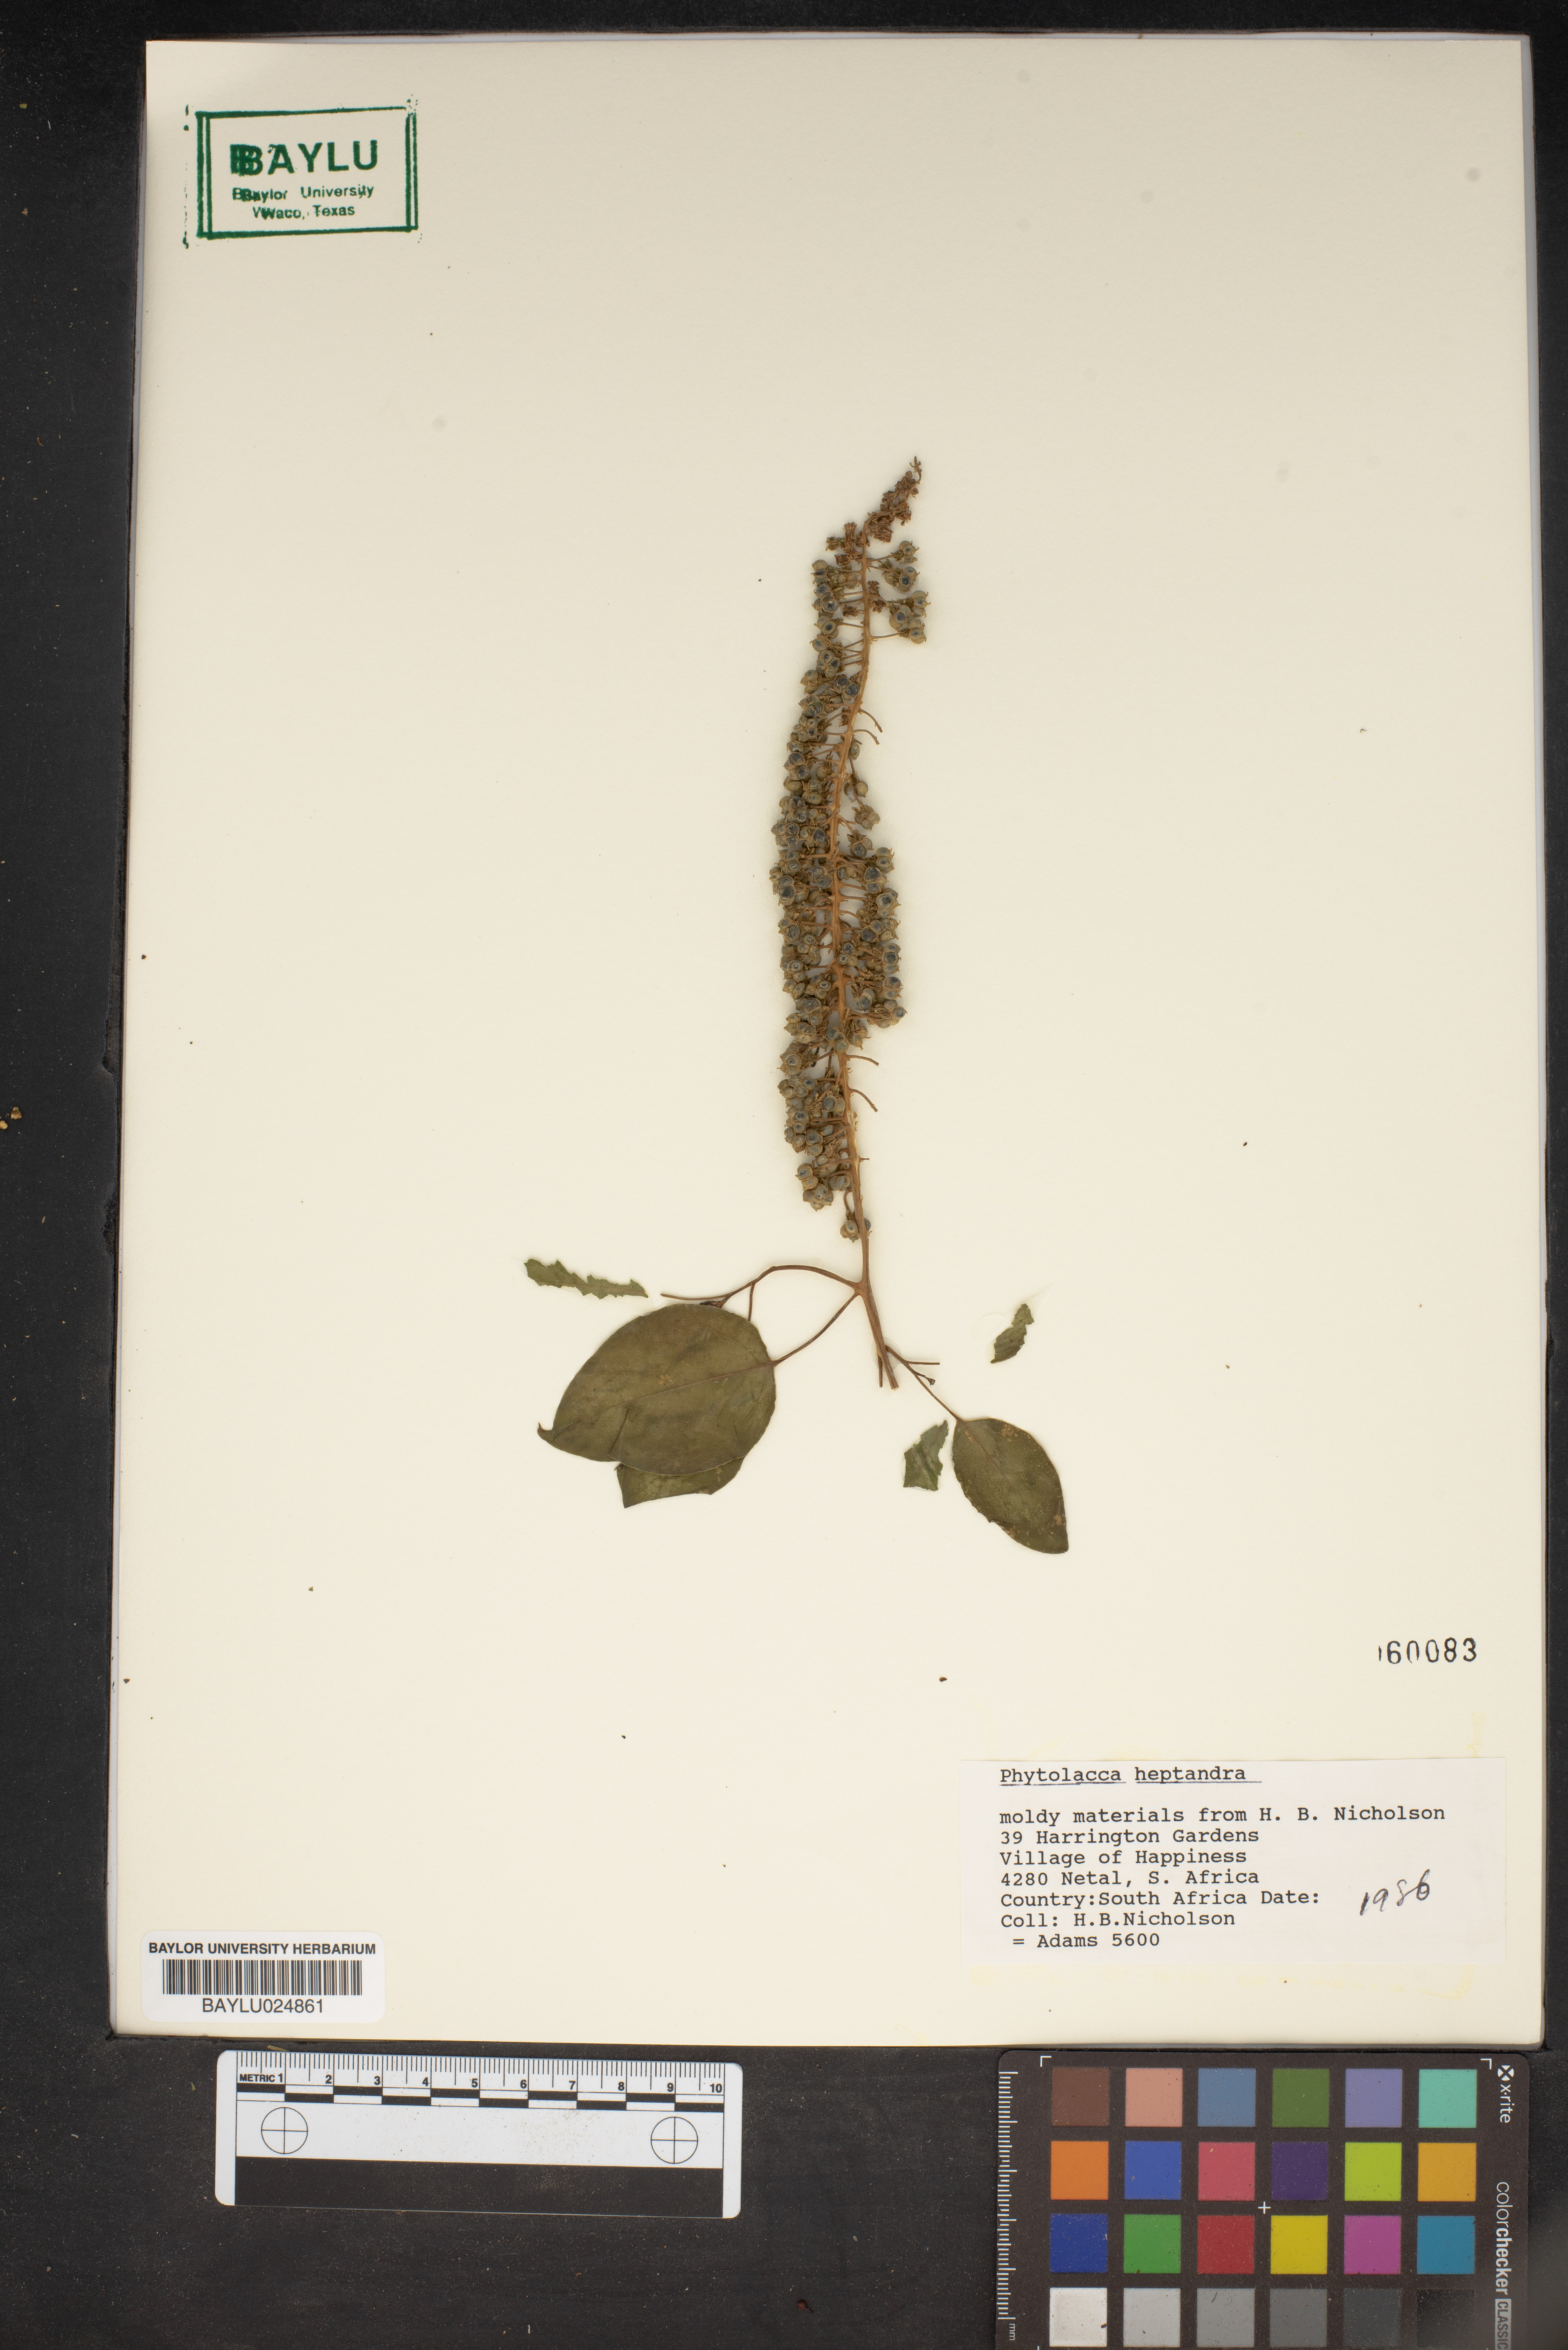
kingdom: Plantae
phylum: Tracheophyta
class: Magnoliopsida
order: Caryophyllales
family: Phytolaccaceae
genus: Phytolacca
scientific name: Phytolacca heptandra
